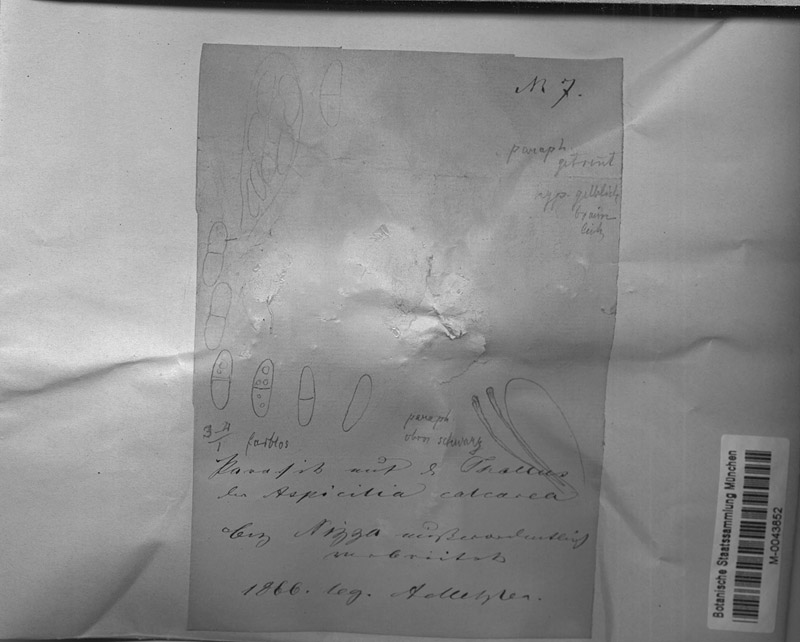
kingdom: Fungi
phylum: Ascomycota
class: Lecanoromycetes
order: Pertusariales
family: Megasporaceae
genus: Circinaria
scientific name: Circinaria calcarea
